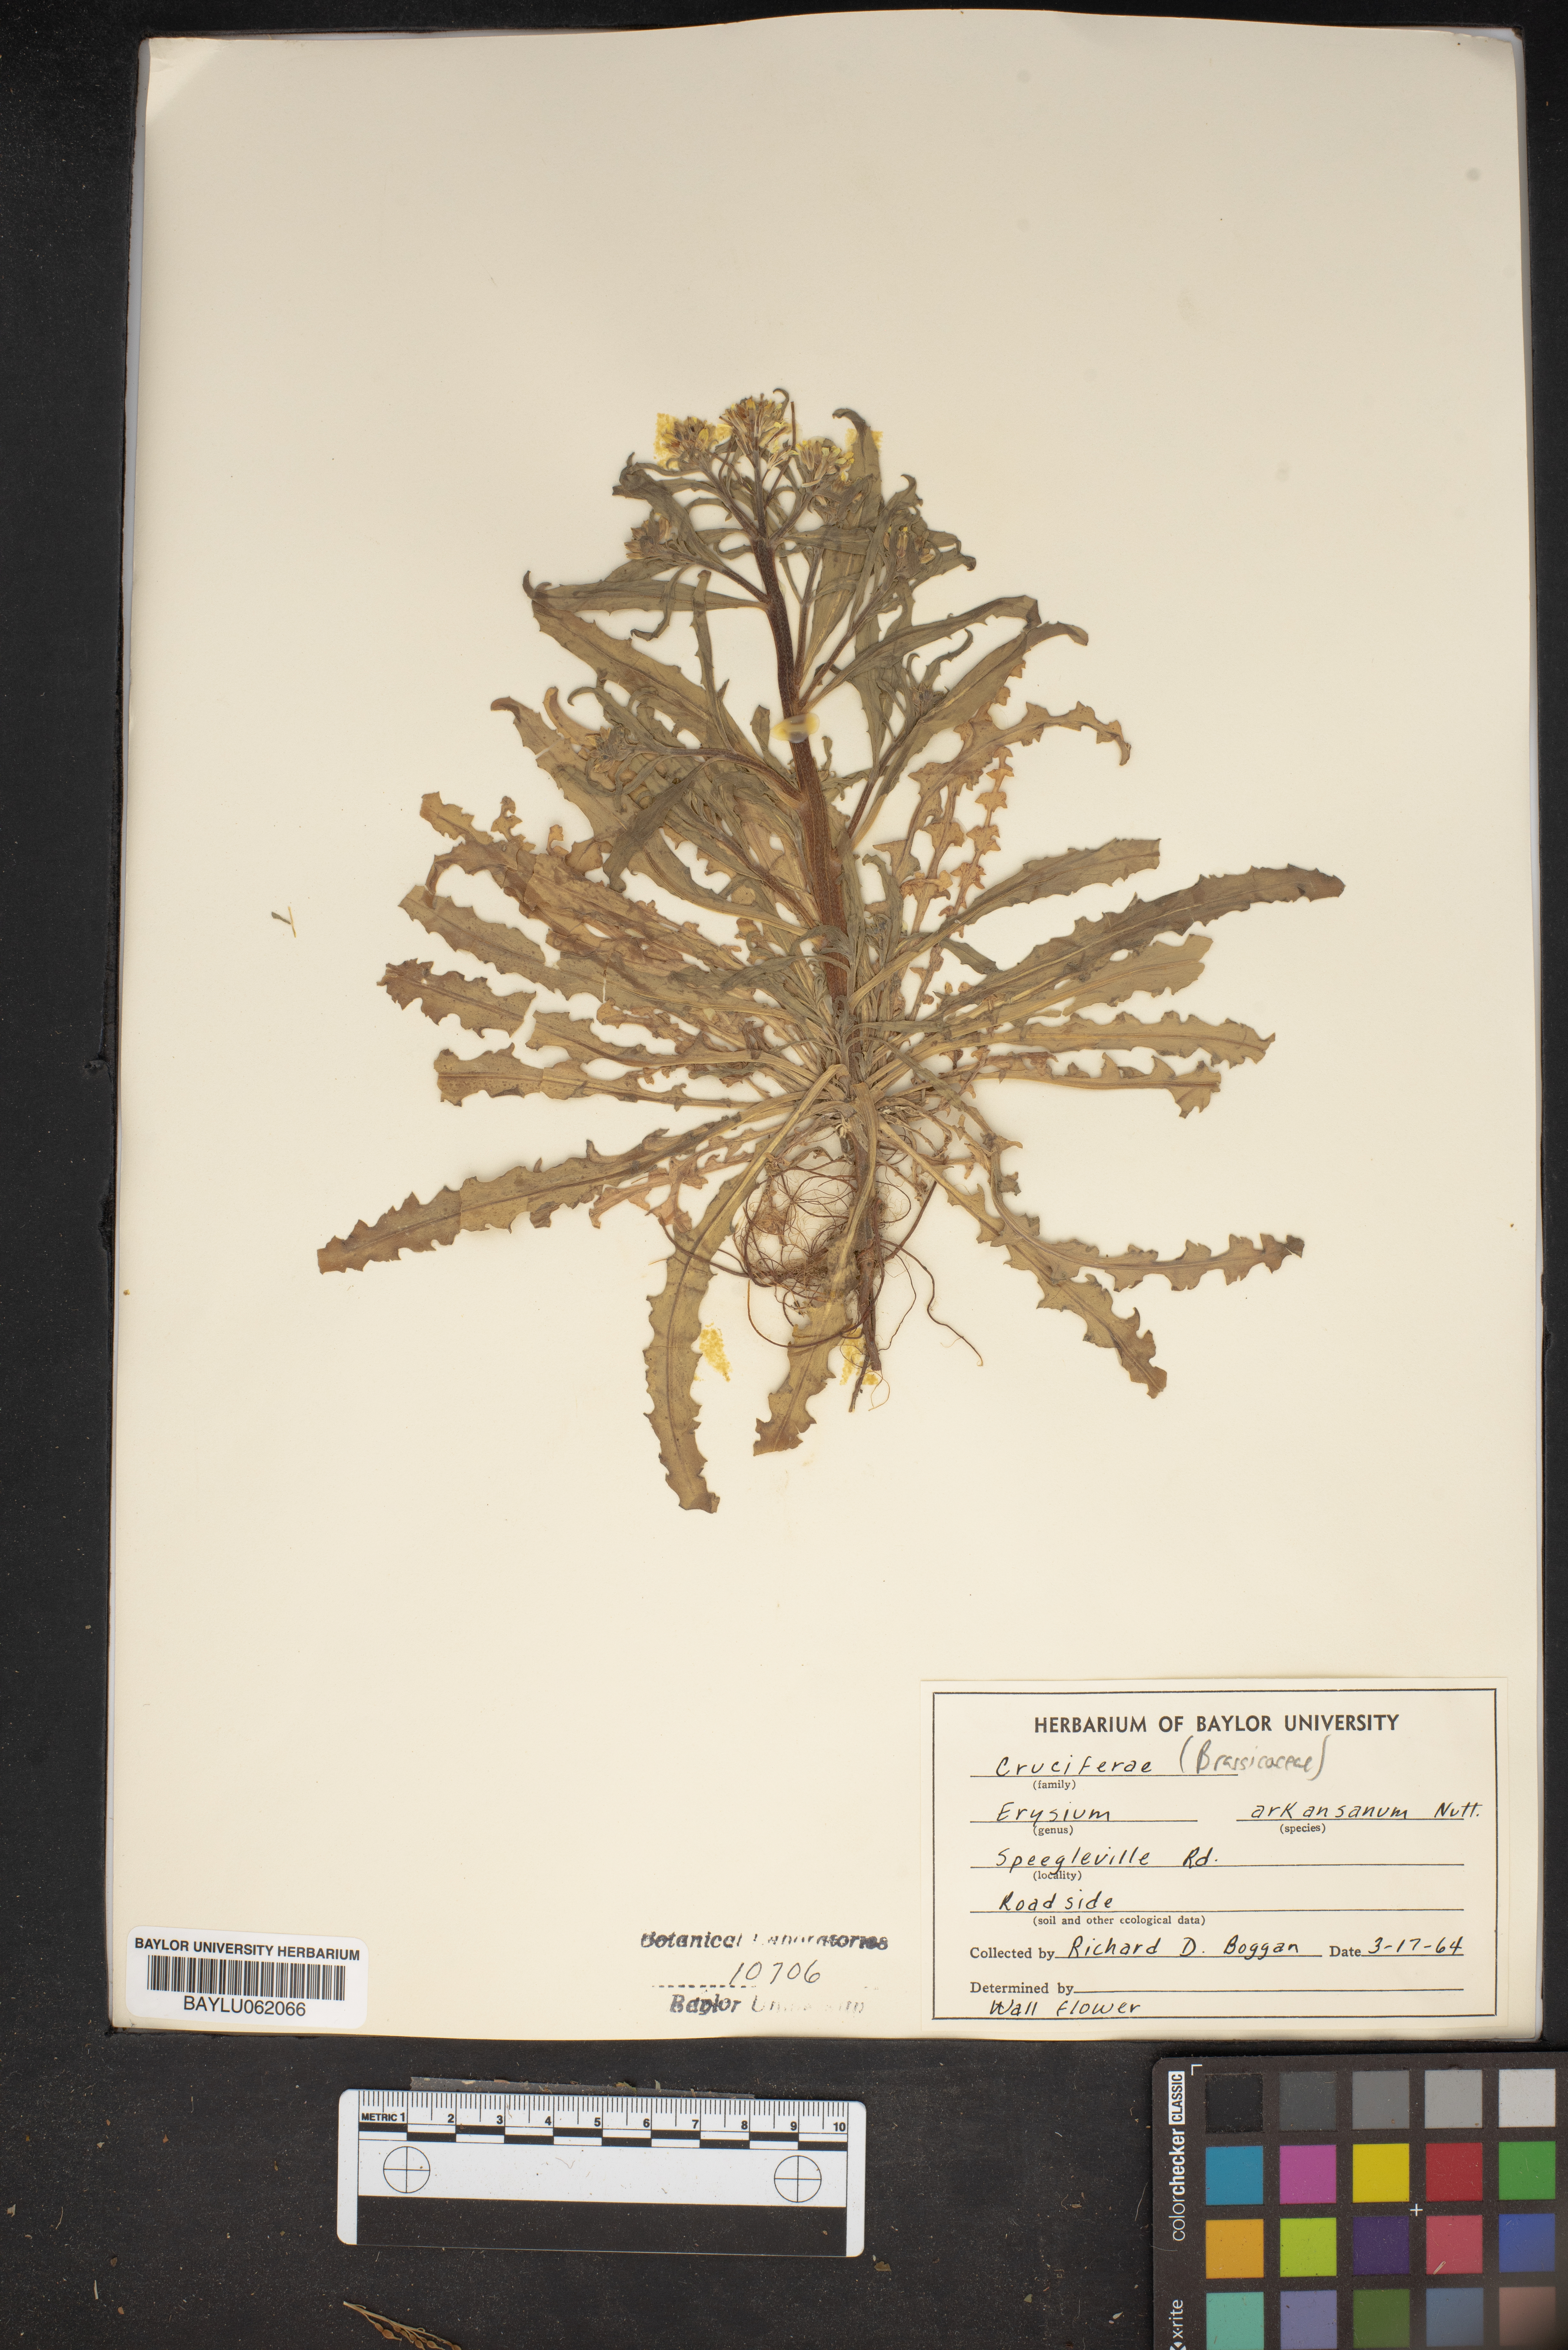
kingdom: Plantae
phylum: Tracheophyta
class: Magnoliopsida
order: Brassicales
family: Brassicaceae
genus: Erysimum
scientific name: Erysimum arkansanum
